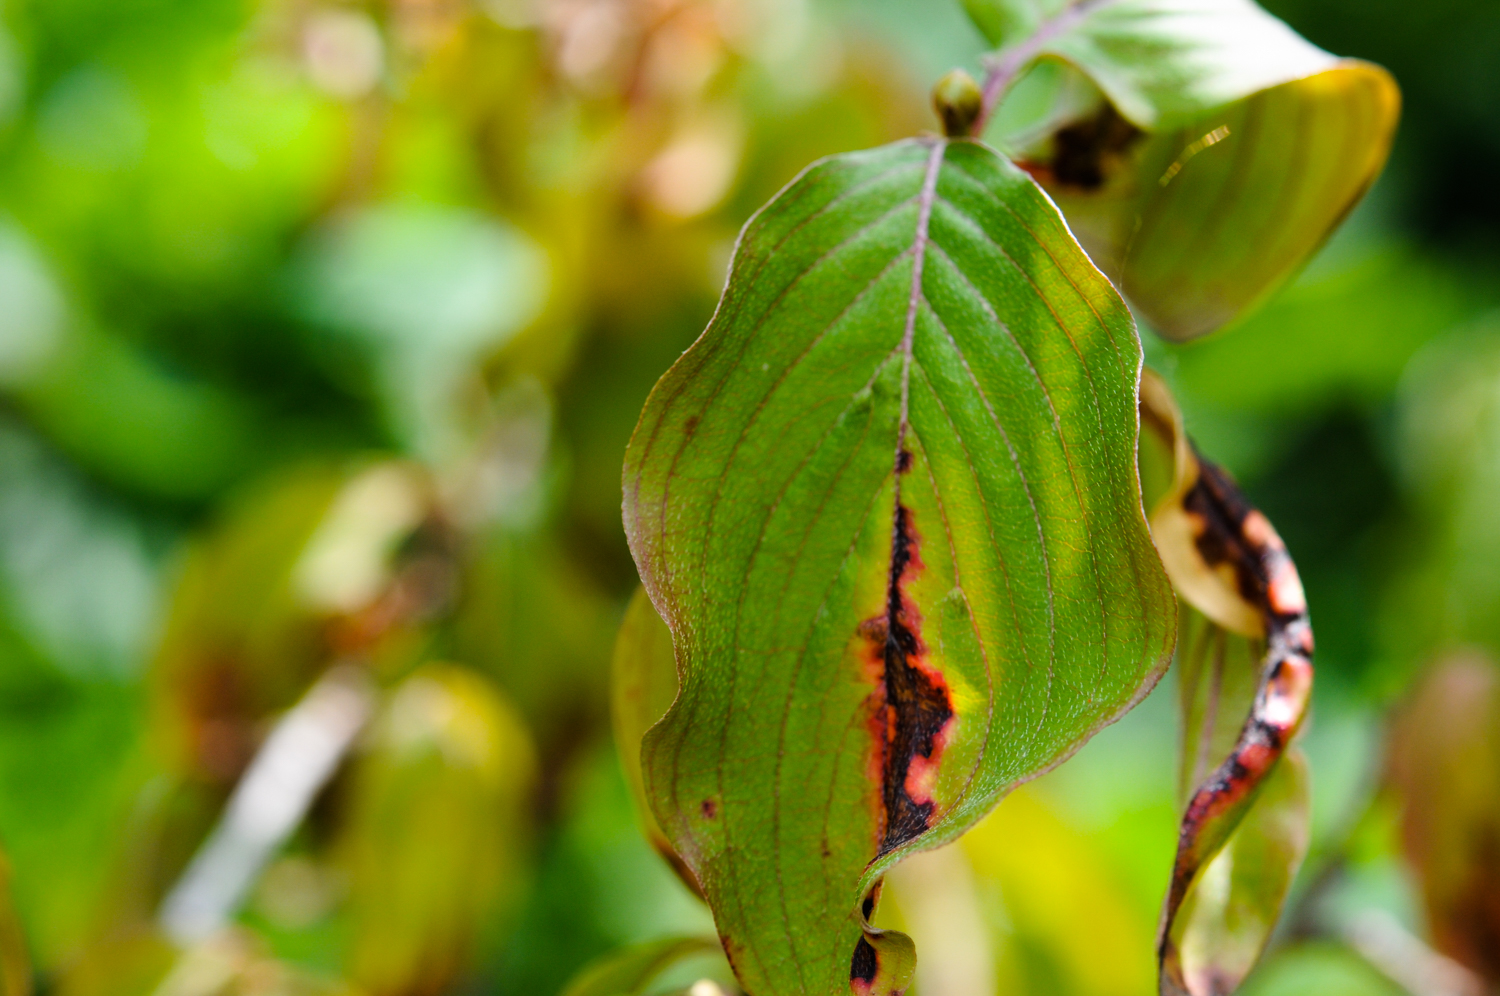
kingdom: Plantae
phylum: Tracheophyta
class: Magnoliopsida
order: Cornales
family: Cornaceae
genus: Cornus
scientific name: Cornus mas
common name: Cornelian-cherry
